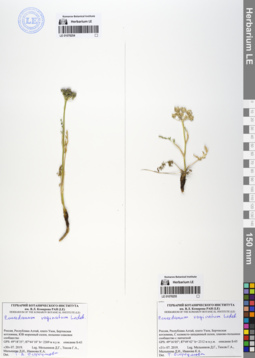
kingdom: Plantae
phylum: Tracheophyta
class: Magnoliopsida
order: Apiales
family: Apiaceae
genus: Peucedanum
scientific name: Peucedanum vaginatum
